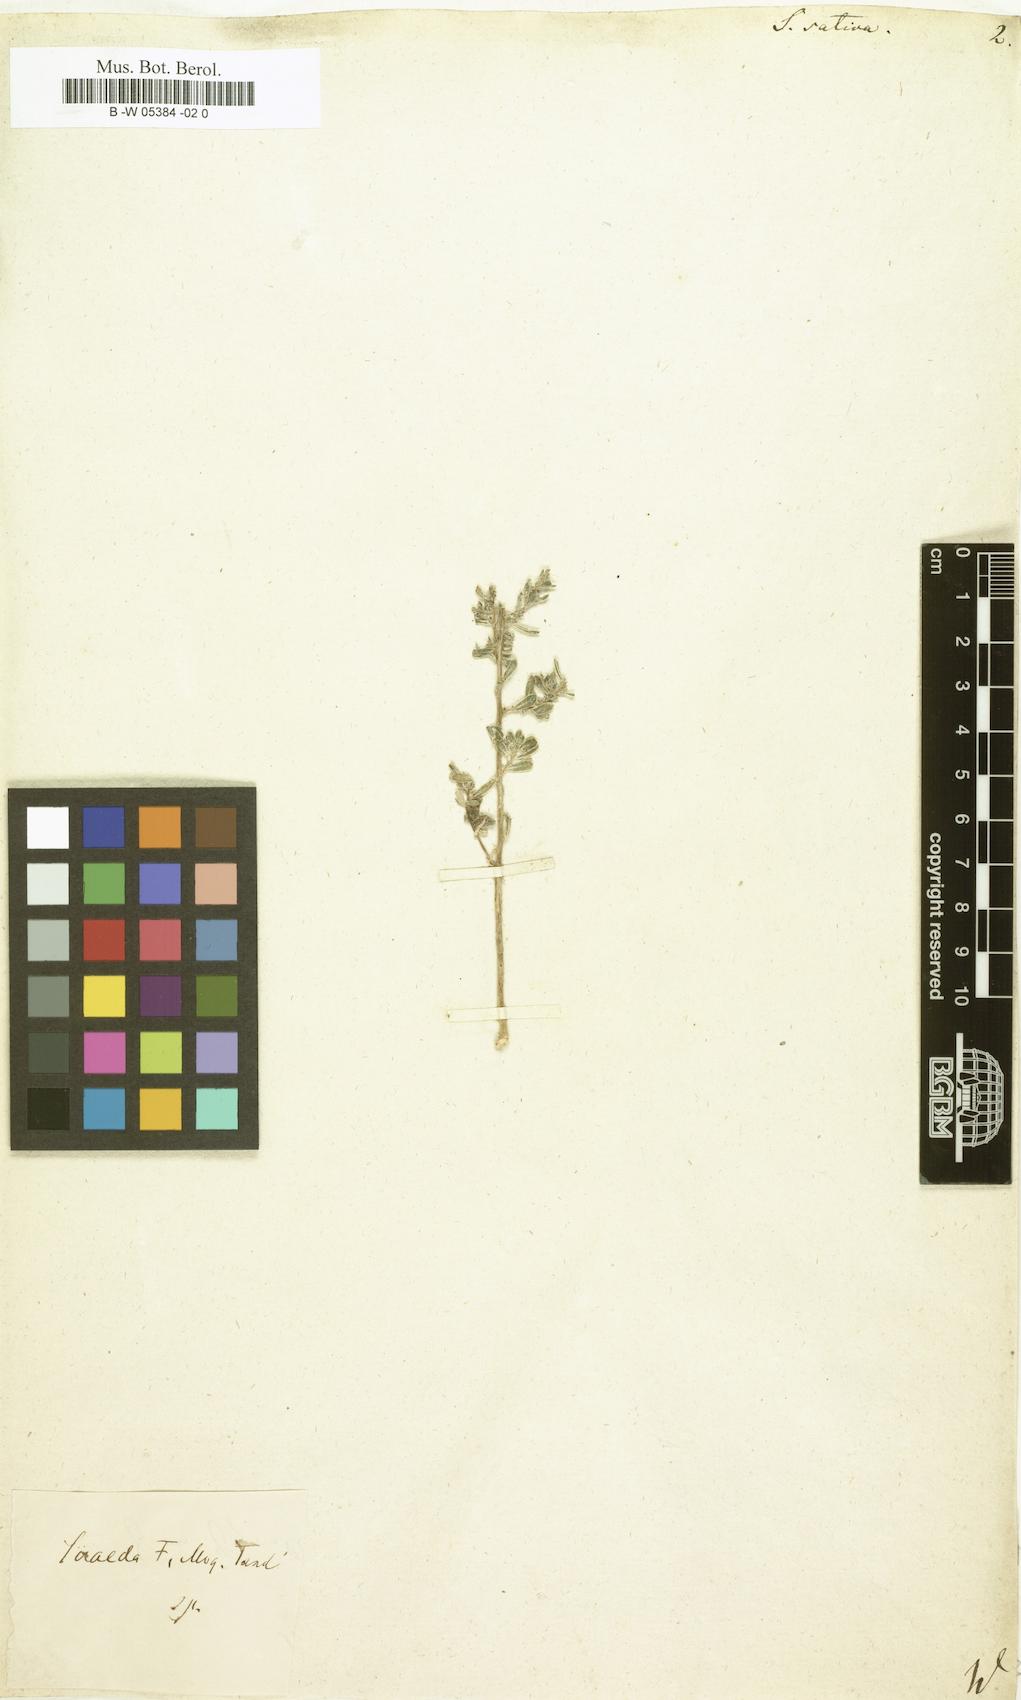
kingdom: Plantae
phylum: Tracheophyta
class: Magnoliopsida
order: Caryophyllales
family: Amaranthaceae
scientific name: Amaranthaceae
